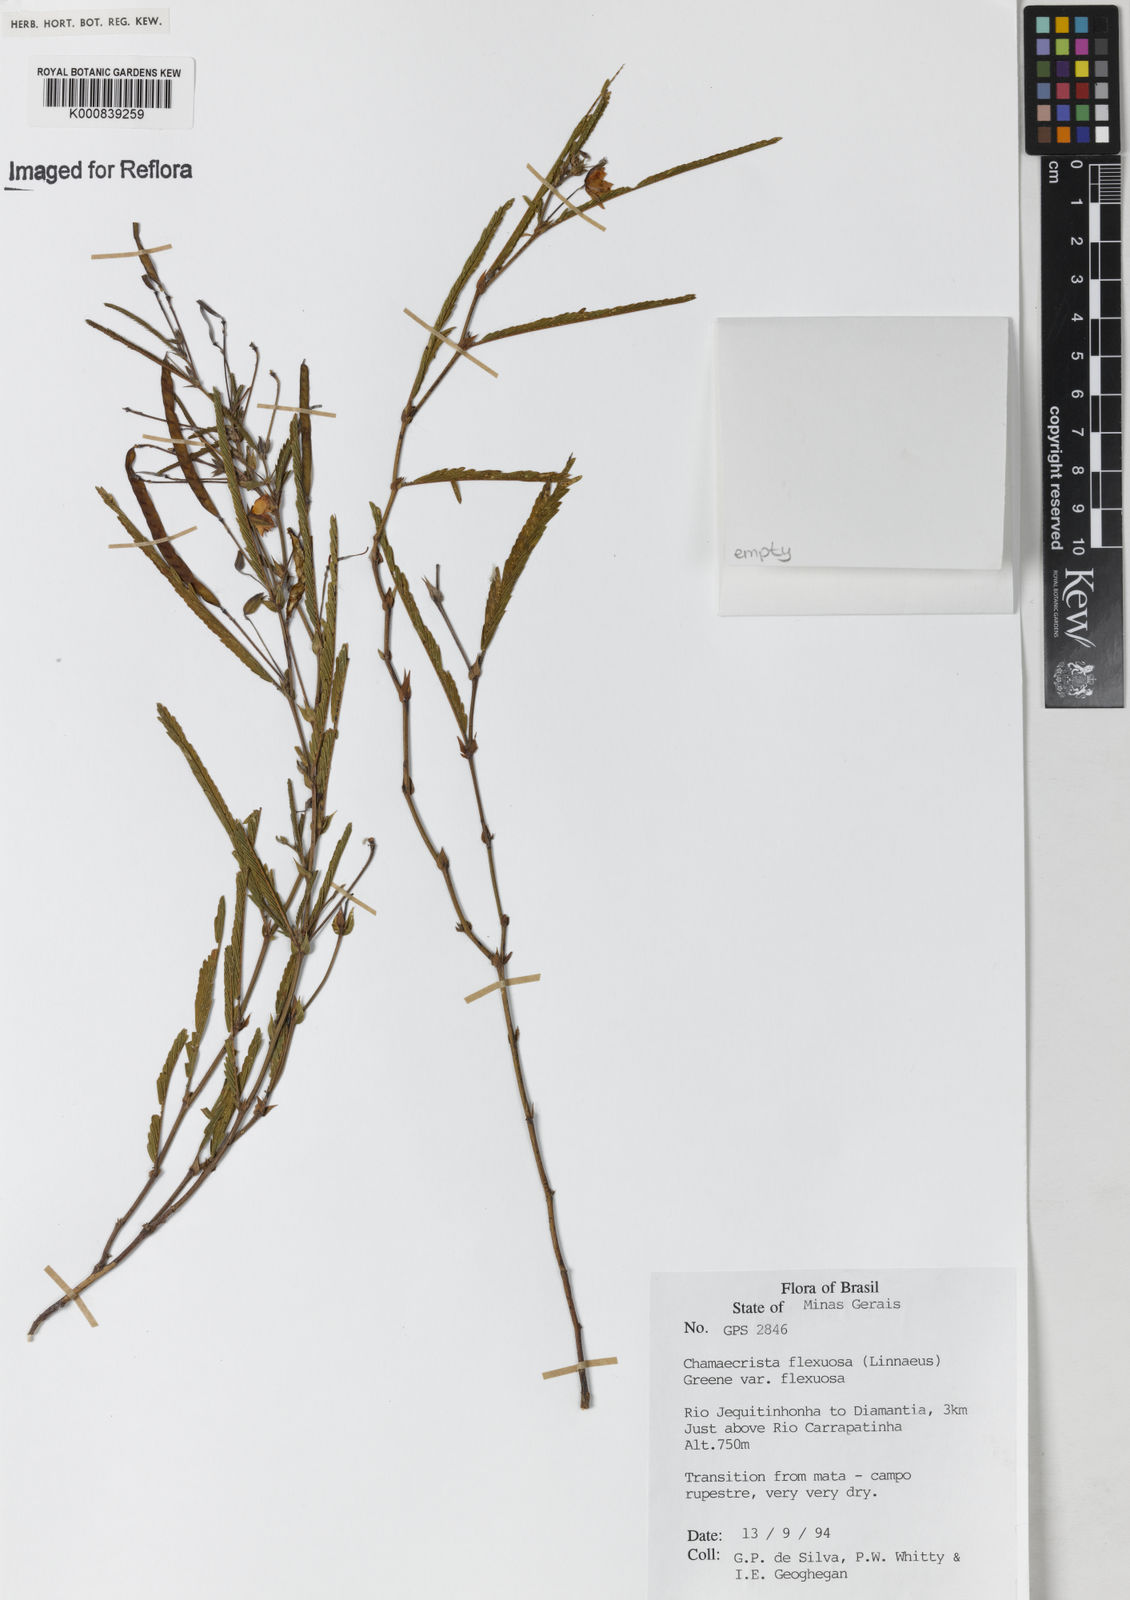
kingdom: Plantae
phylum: Tracheophyta
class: Magnoliopsida
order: Fabales
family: Fabaceae
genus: Chamaecrista
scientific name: Chamaecrista flexuosa
